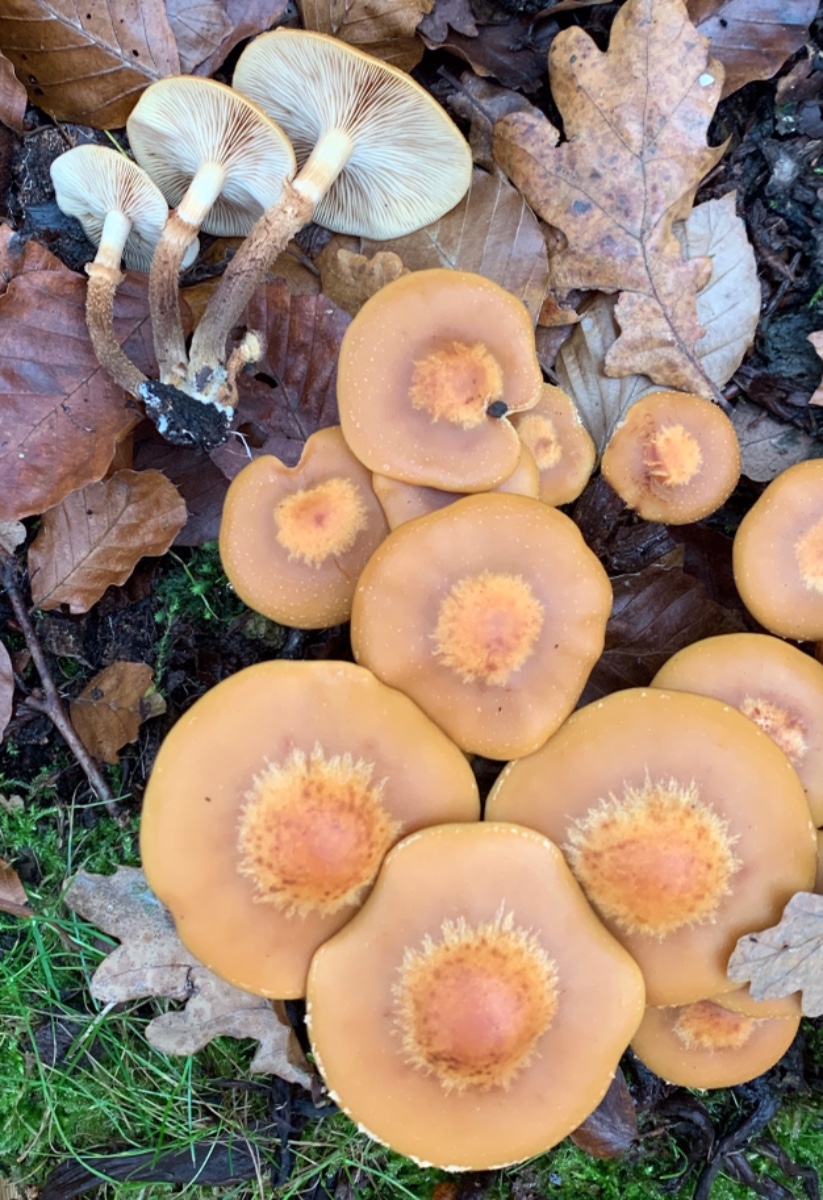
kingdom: Fungi
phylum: Basidiomycota
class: Agaricomycetes
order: Agaricales
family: Strophariaceae
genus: Kuehneromyces
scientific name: Kuehneromyces mutabilis
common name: foranderlig skælhat
